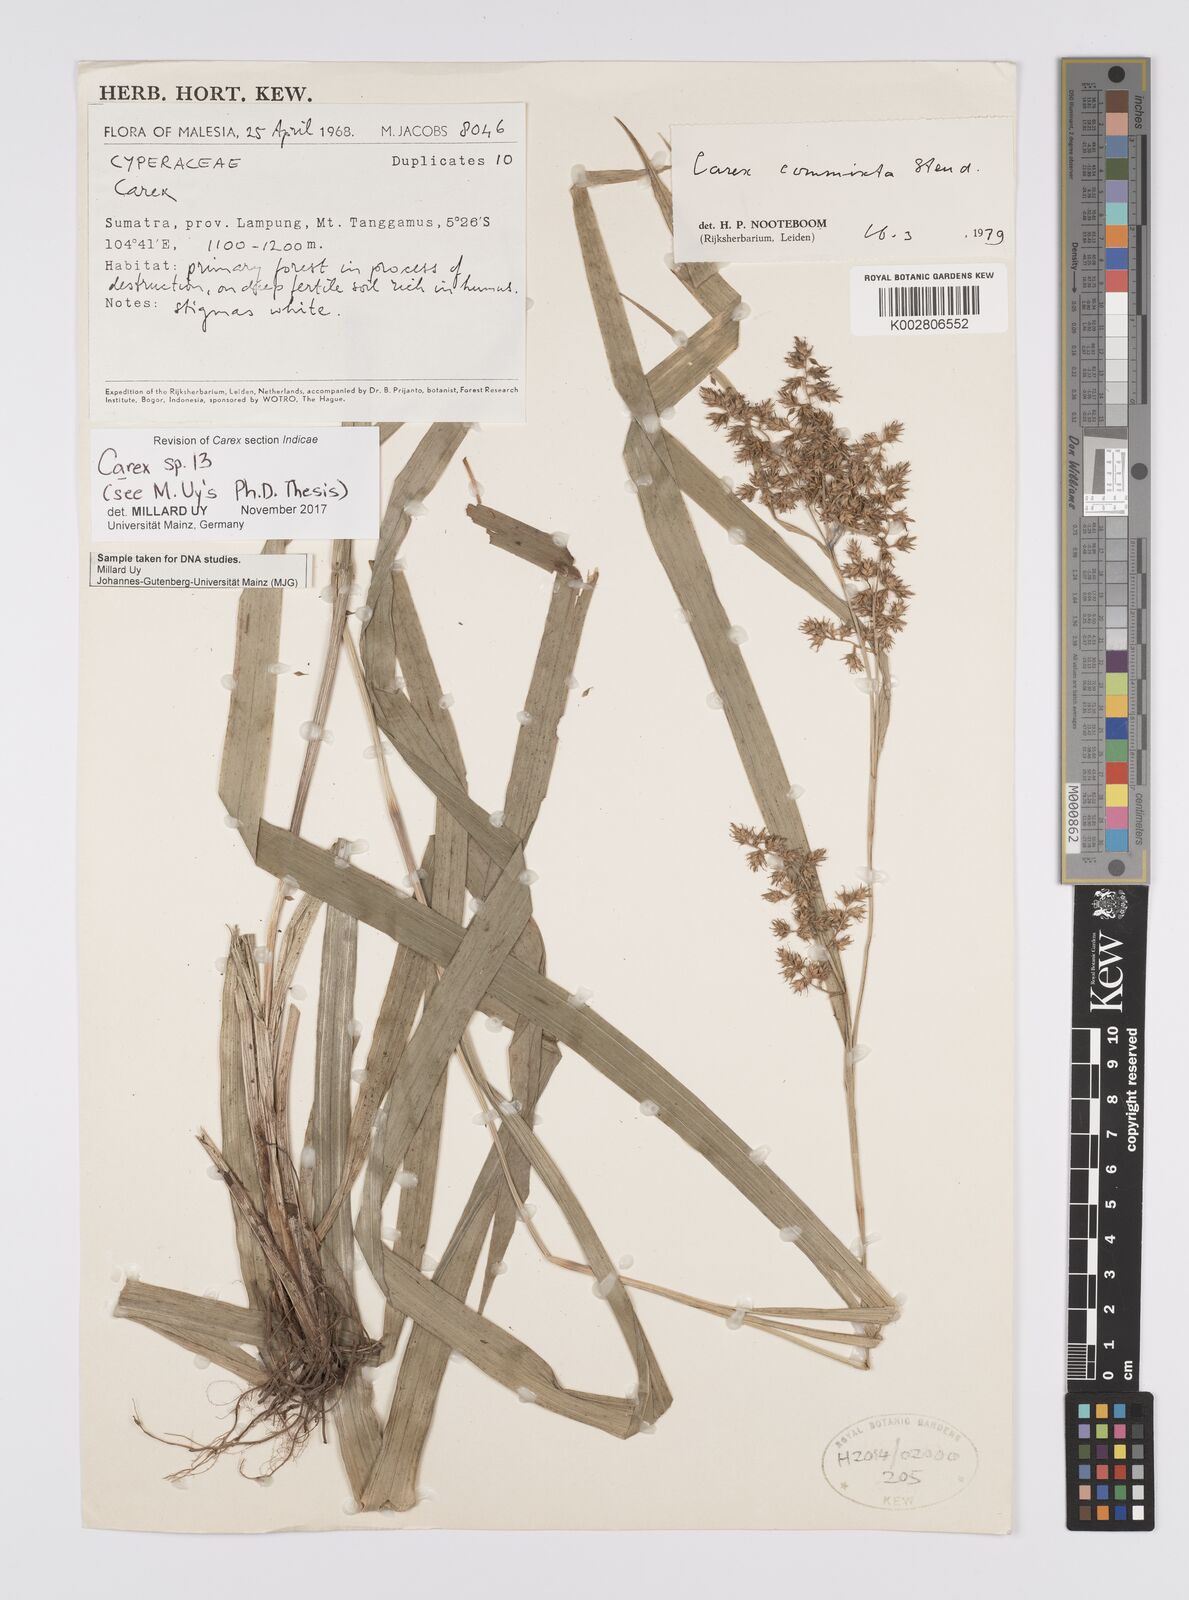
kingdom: Plantae
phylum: Tracheophyta
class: Liliopsida
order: Poales
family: Cyperaceae
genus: Carex
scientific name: Carex
